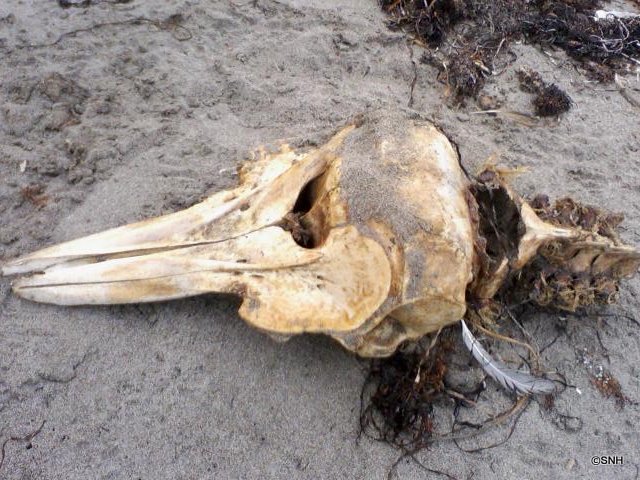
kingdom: Animalia
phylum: Chordata
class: Mammalia
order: Cetacea
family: Phocoenidae
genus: Phocoenoides
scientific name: Phocoenoides dalli
